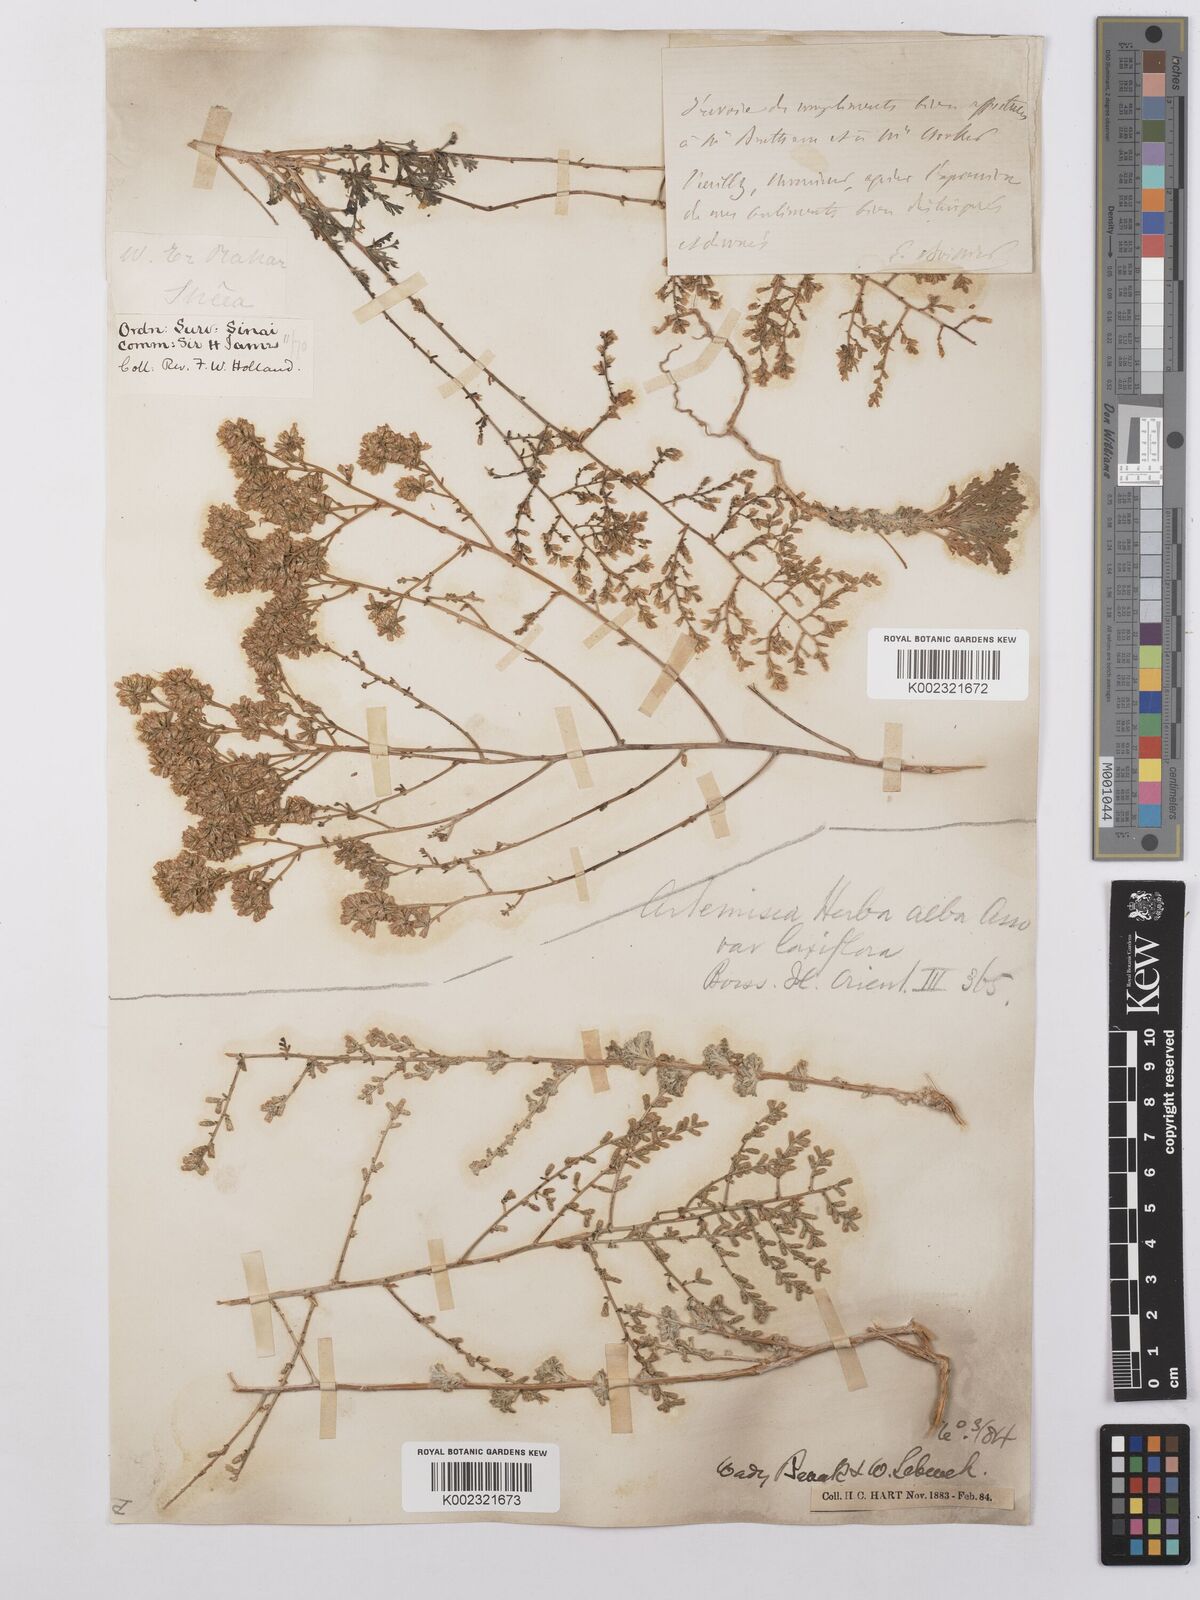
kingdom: Plantae
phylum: Tracheophyta
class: Magnoliopsida
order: Asterales
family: Asteraceae
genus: Artemisia
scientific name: Artemisia herba-alba
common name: White wormwood
